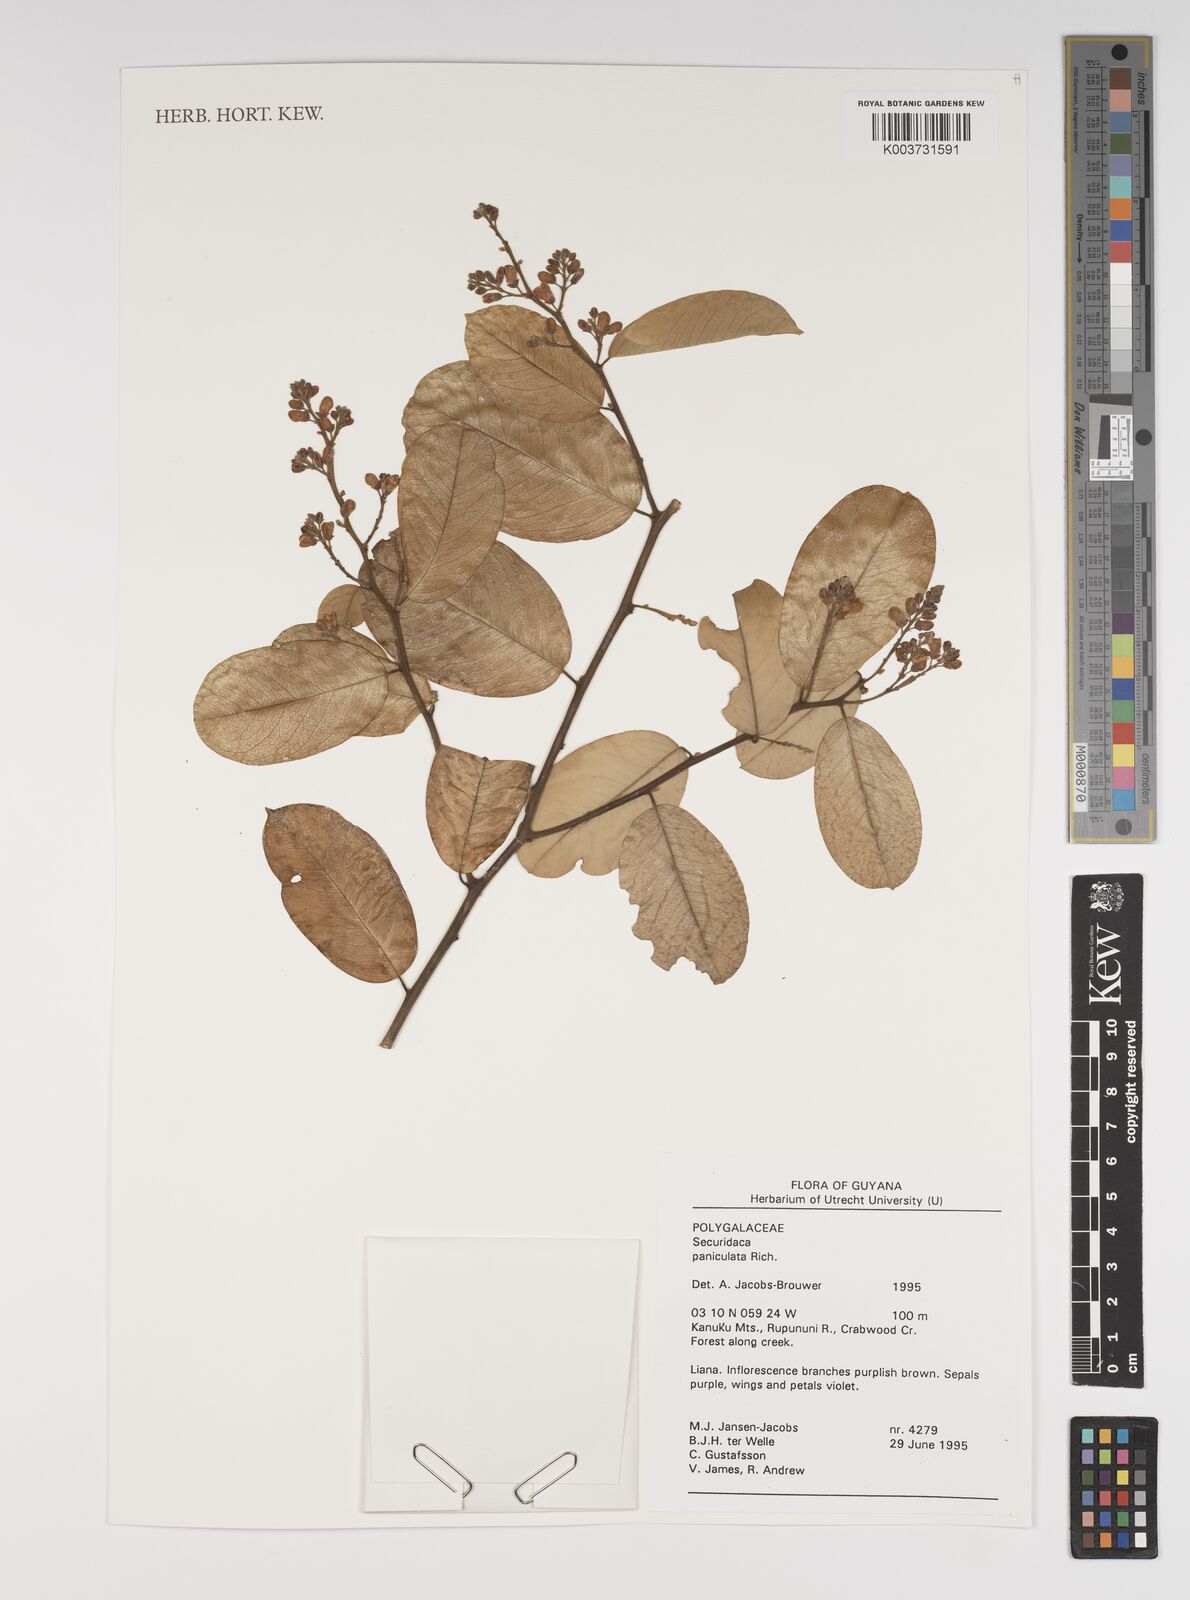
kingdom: Plantae
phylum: Tracheophyta
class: Magnoliopsida
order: Fabales
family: Polygalaceae
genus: Securidaca
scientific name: Securidaca paniculata
